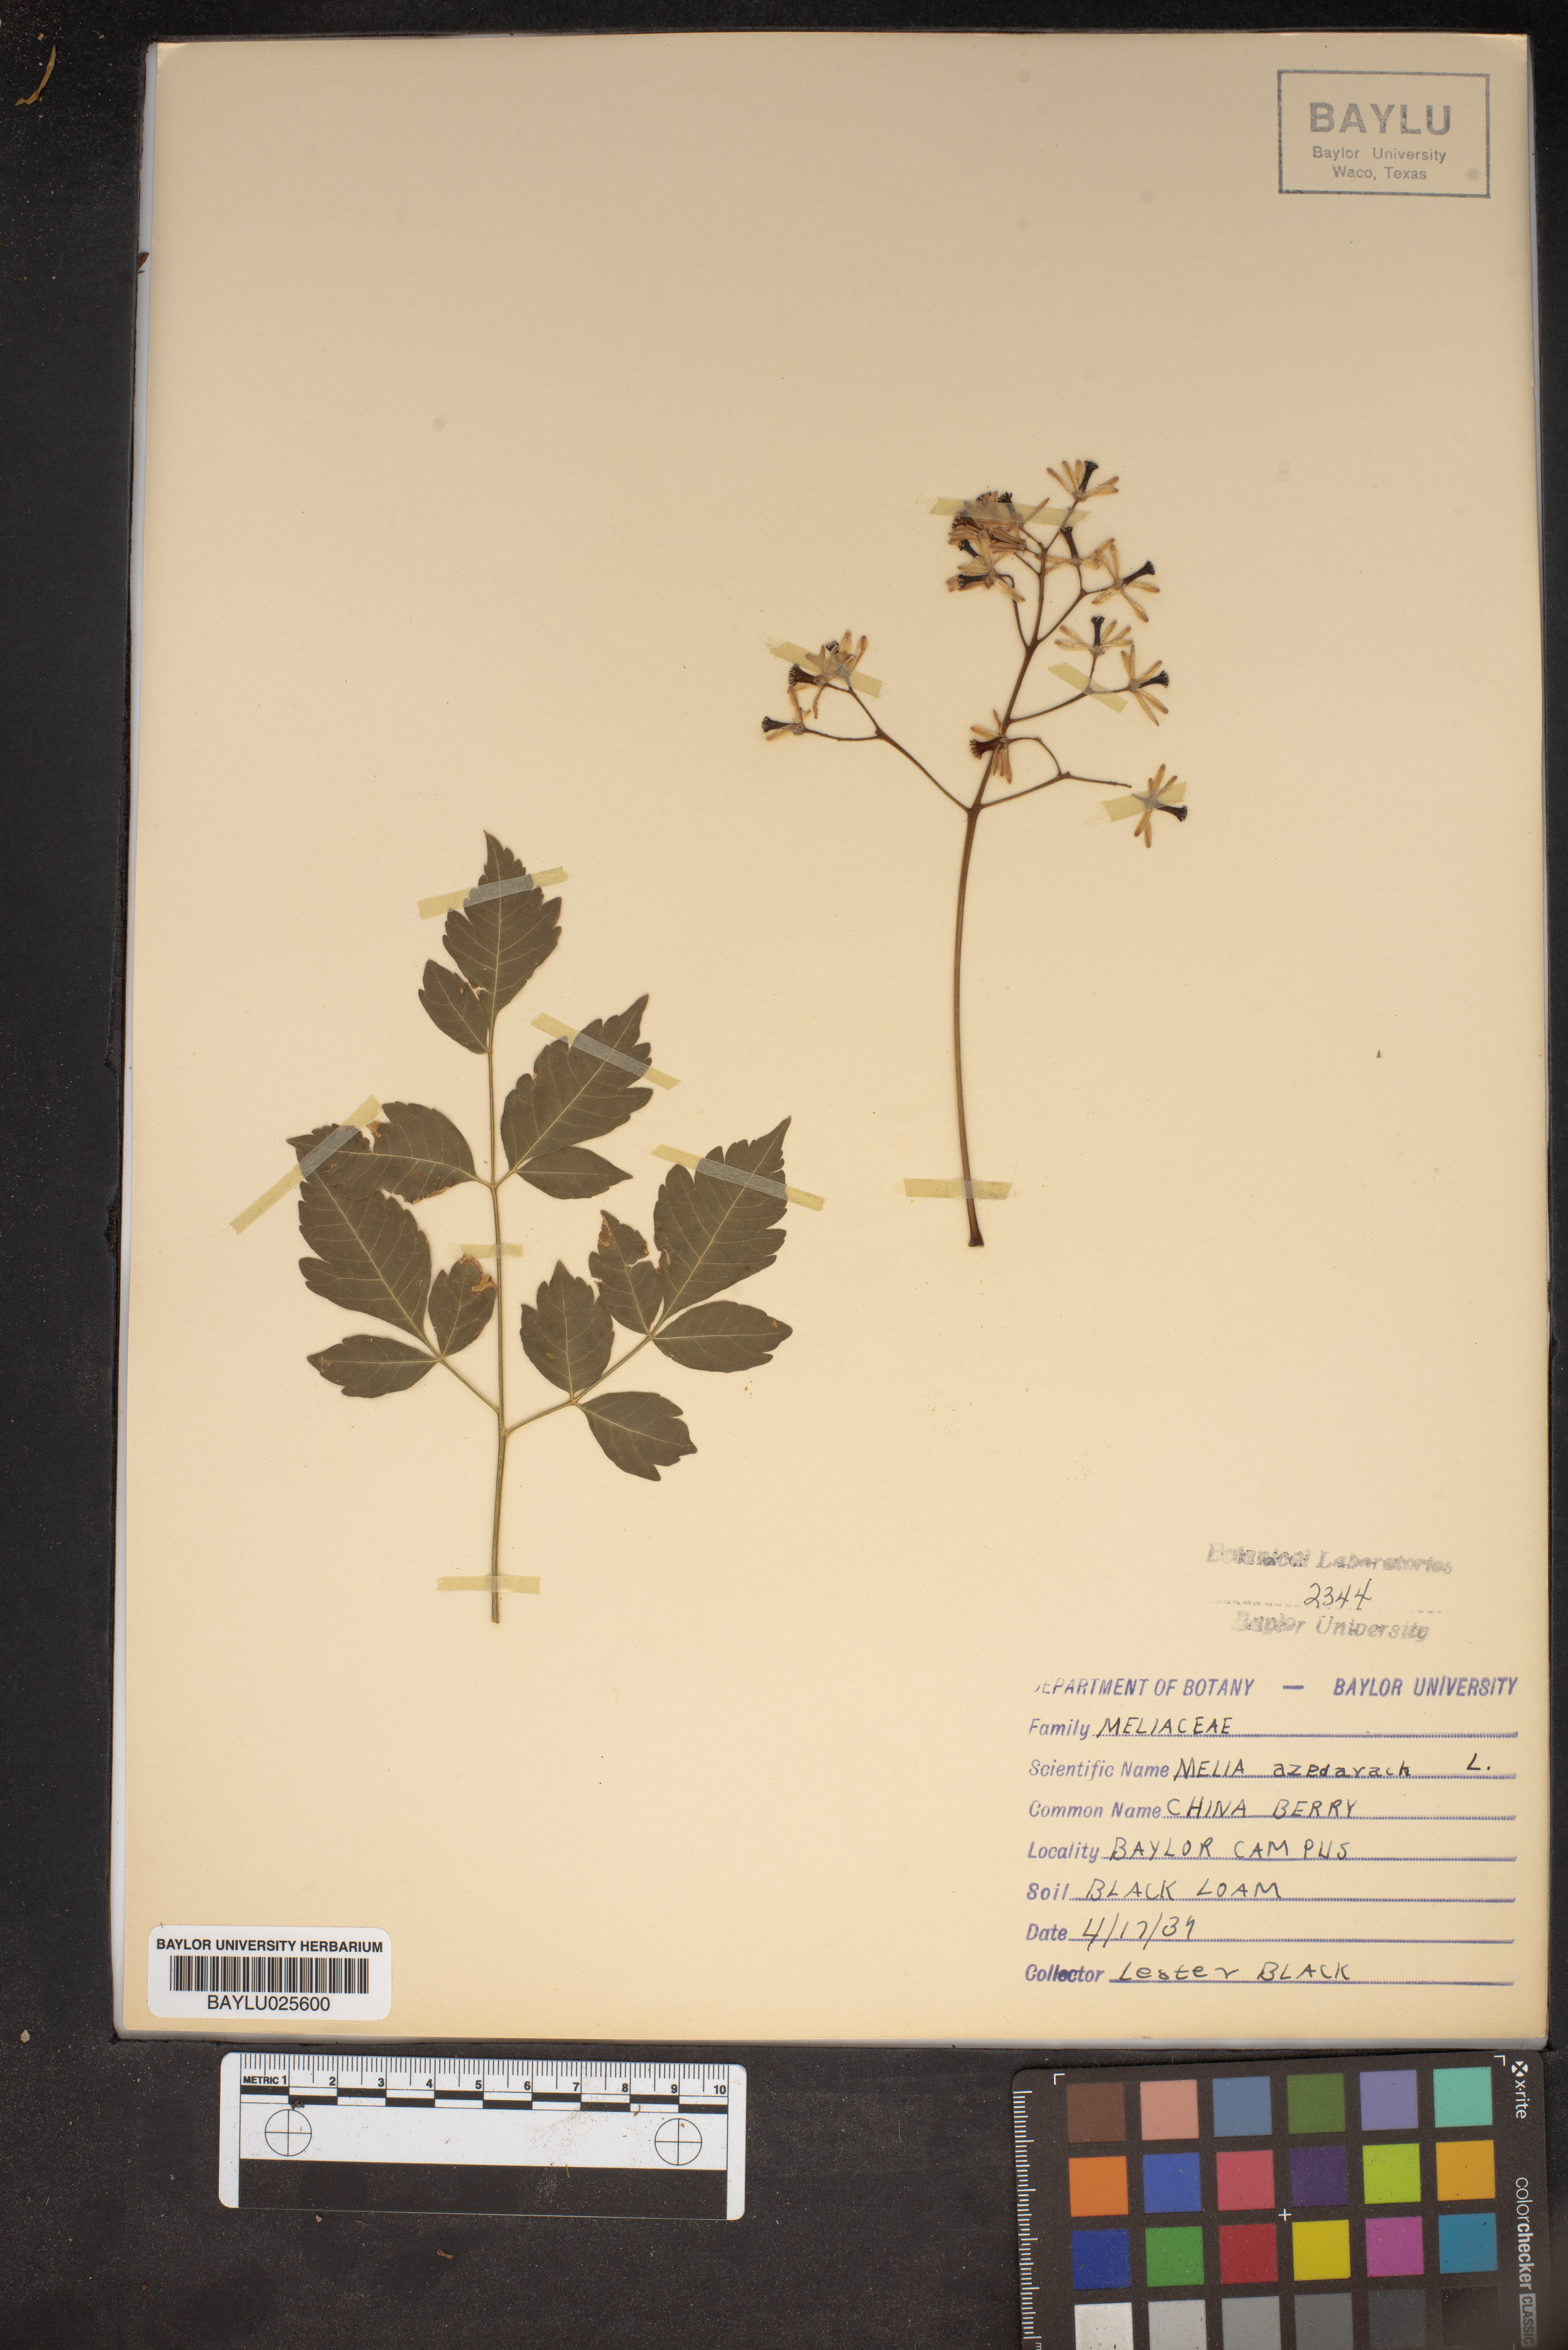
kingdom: Plantae
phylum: Tracheophyta
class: Magnoliopsida
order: Sapindales
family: Meliaceae
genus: Melia
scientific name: Melia azedarach
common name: Chinaberrytree
